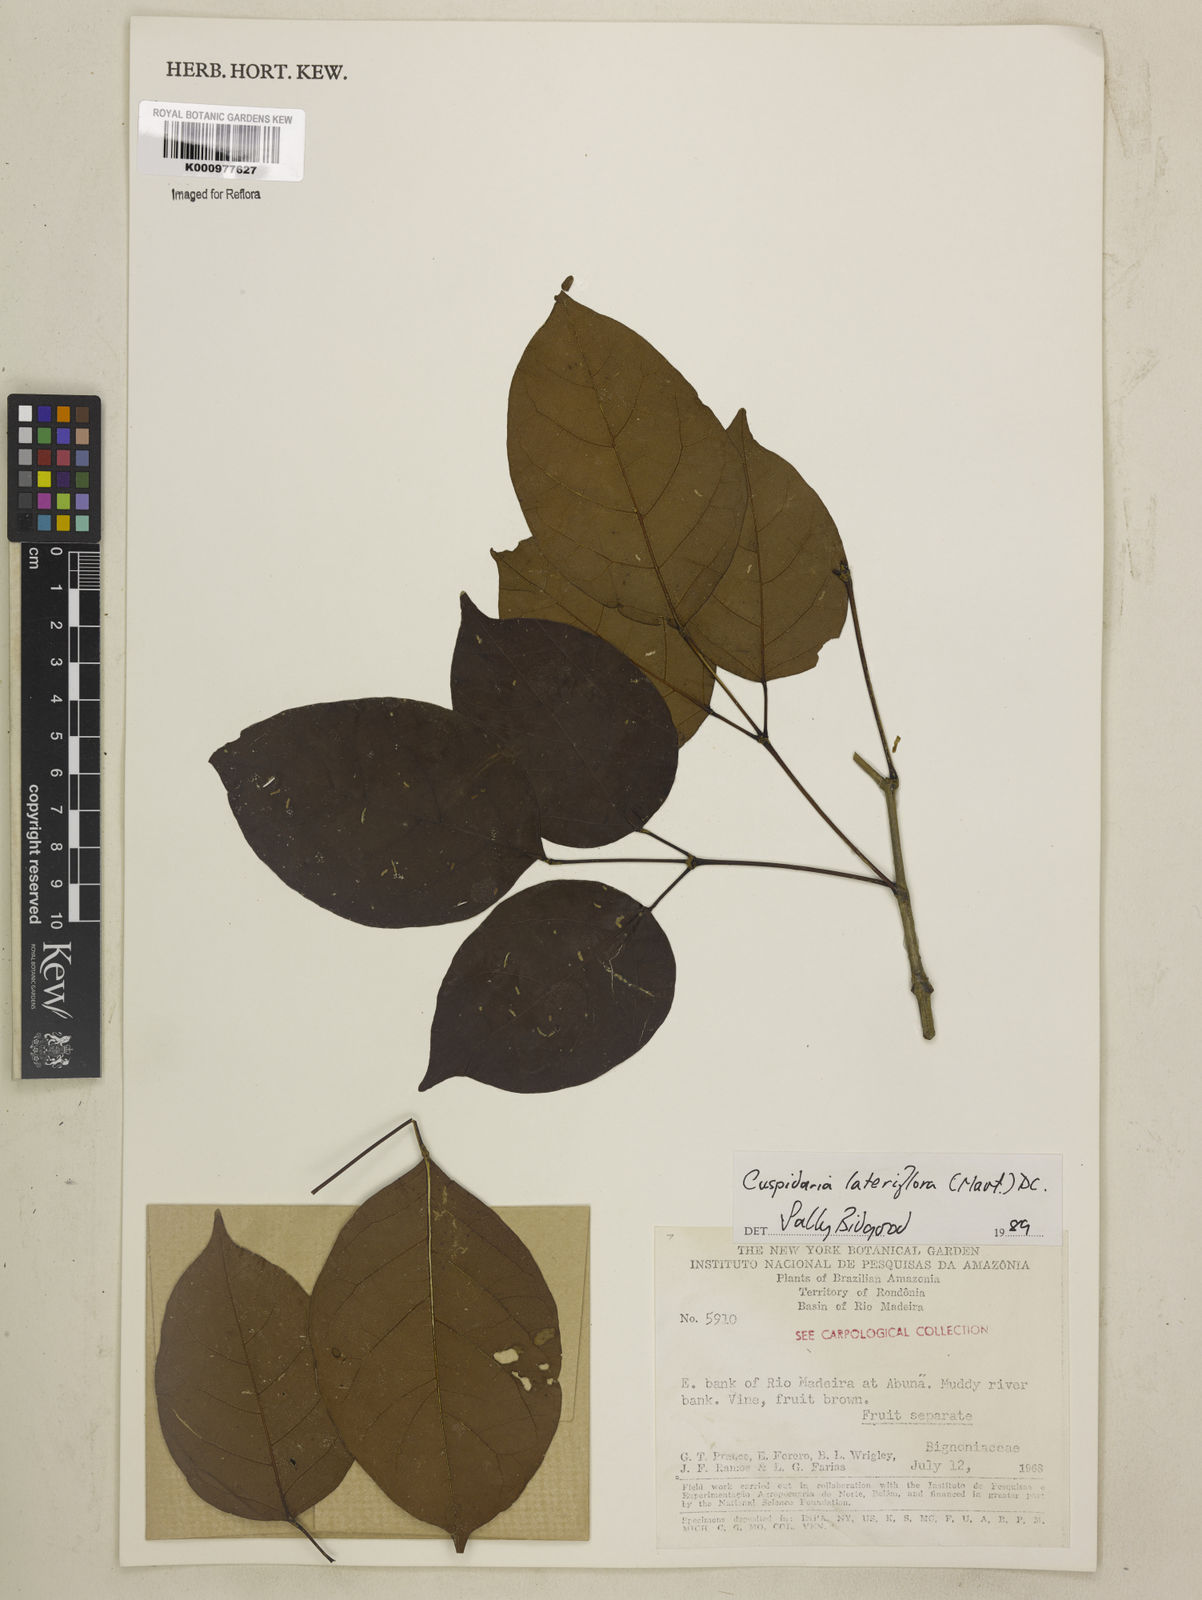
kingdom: Plantae
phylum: Tracheophyta
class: Magnoliopsida
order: Lamiales
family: Bignoniaceae
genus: Cuspidaria
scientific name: Cuspidaria lateriflora
